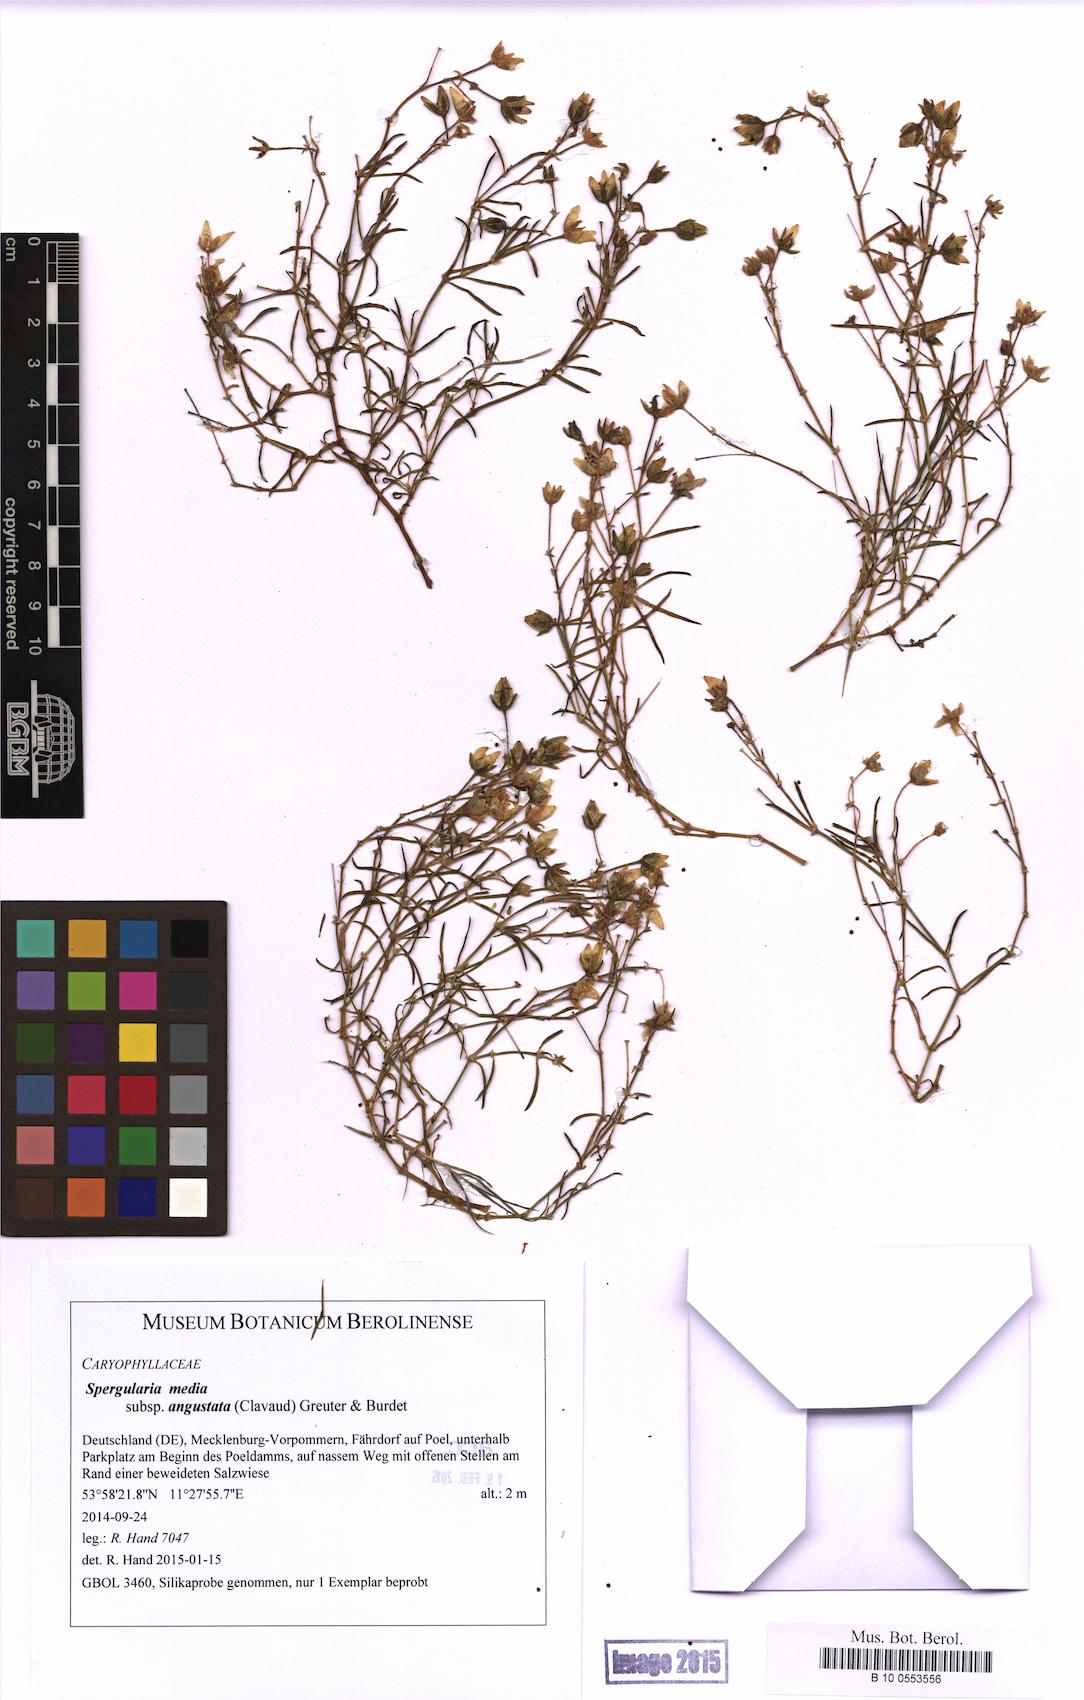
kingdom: Plantae
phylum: Tracheophyta
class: Magnoliopsida
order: Caryophyllales
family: Caryophyllaceae
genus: Spergularia
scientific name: Spergularia media
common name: Greater sea-spurrey
